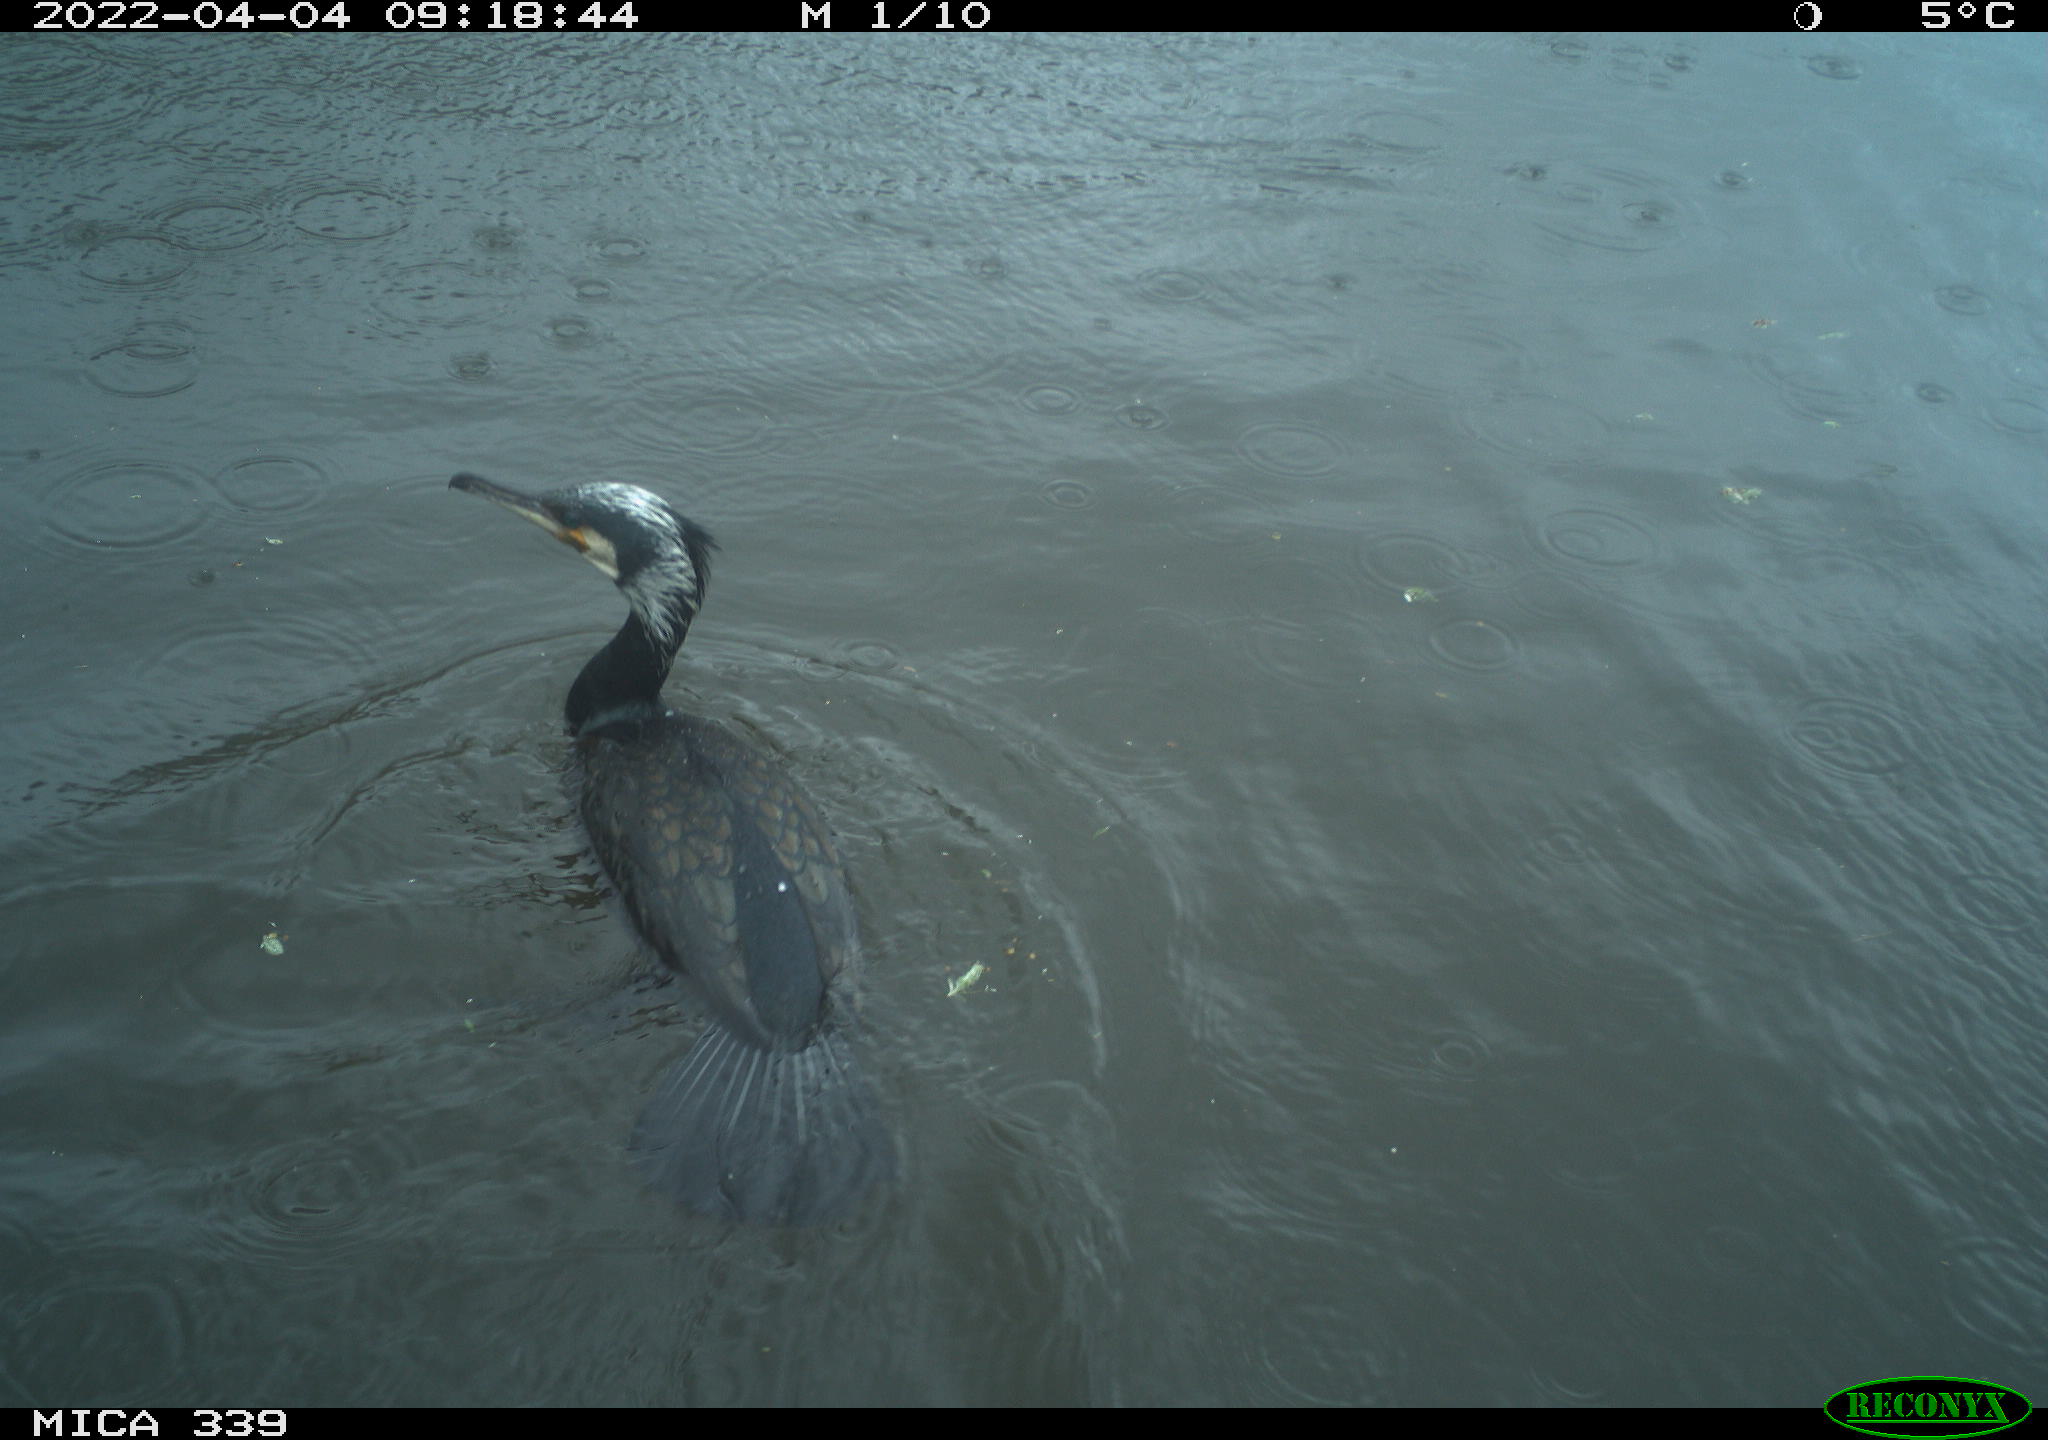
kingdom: Animalia
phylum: Chordata
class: Aves
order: Suliformes
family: Phalacrocoracidae
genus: Phalacrocorax
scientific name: Phalacrocorax carbo
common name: Great cormorant
